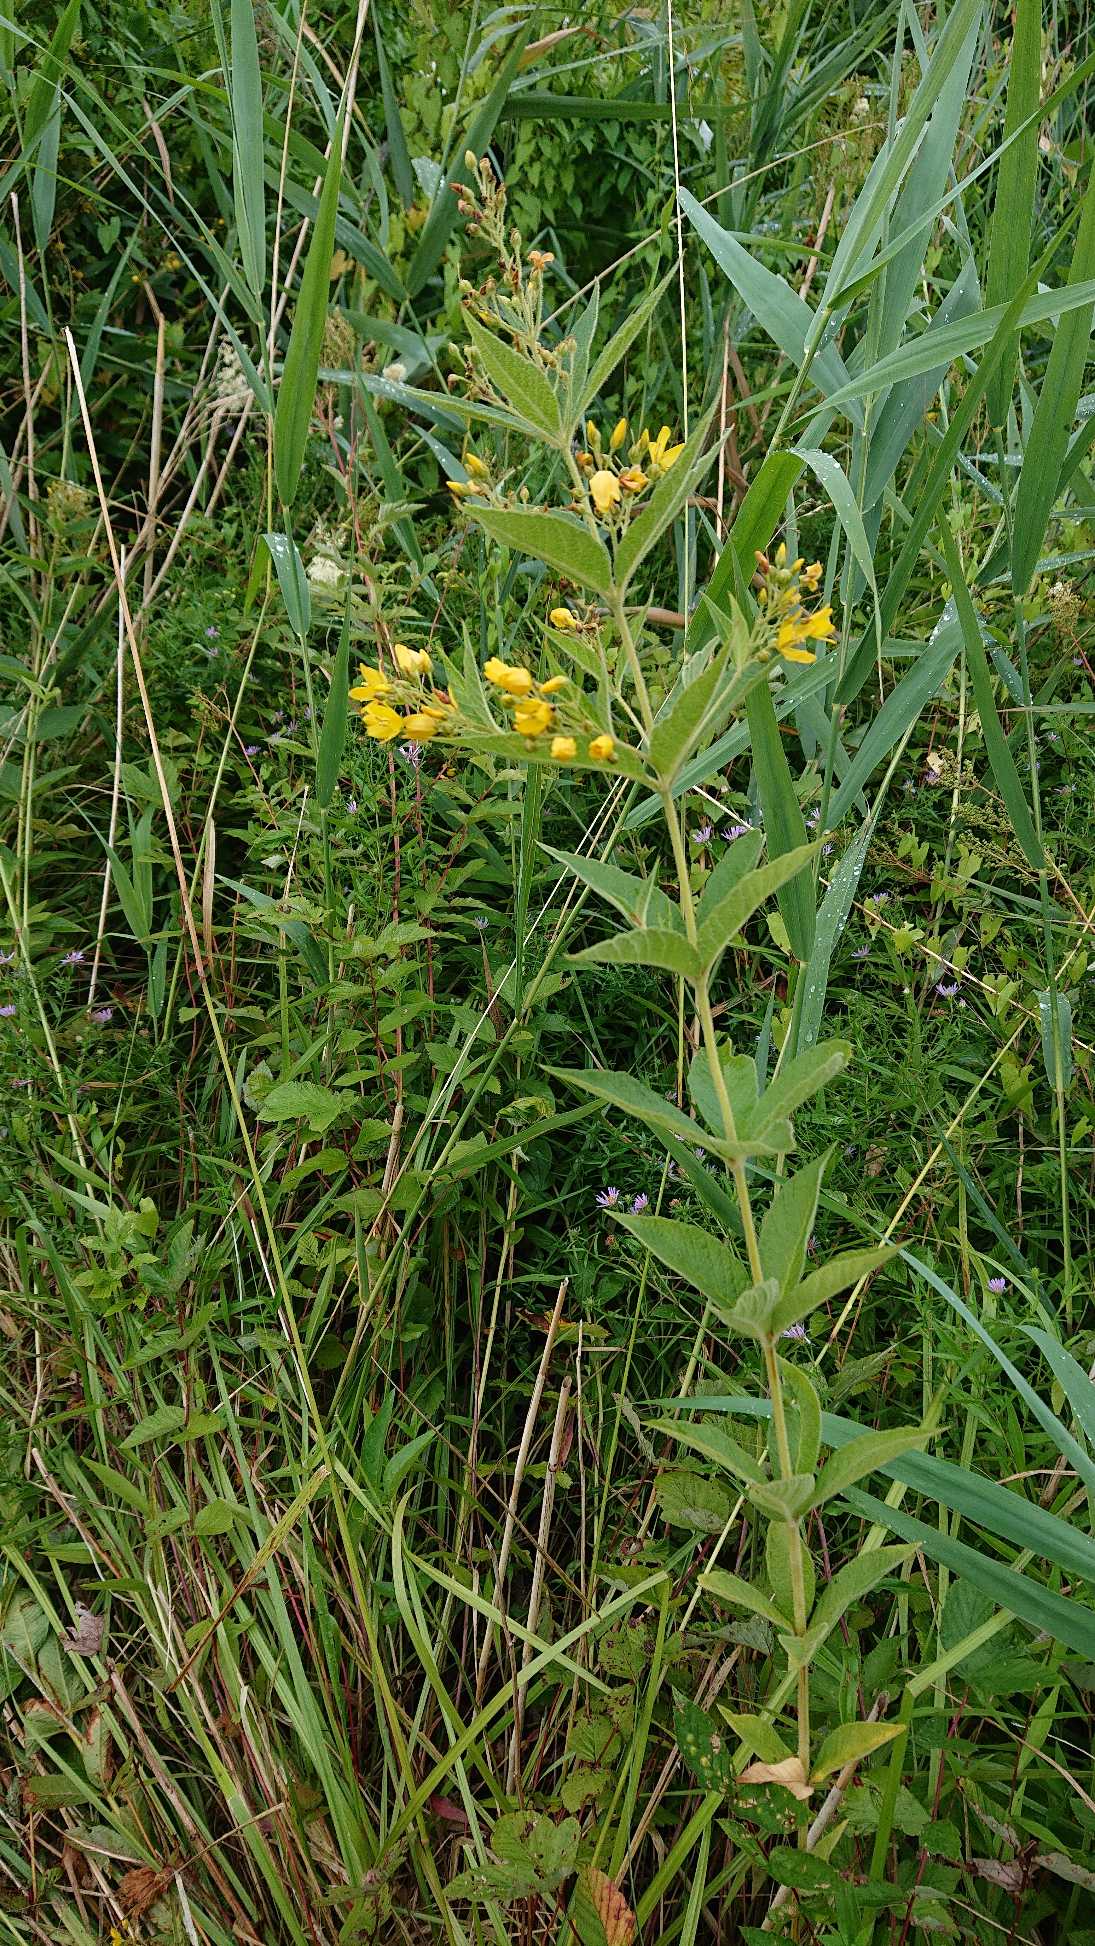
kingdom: Plantae
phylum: Tracheophyta
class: Magnoliopsida
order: Ericales
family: Primulaceae
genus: Lysimachia
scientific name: Lysimachia vulgaris
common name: Almindelig fredløs
